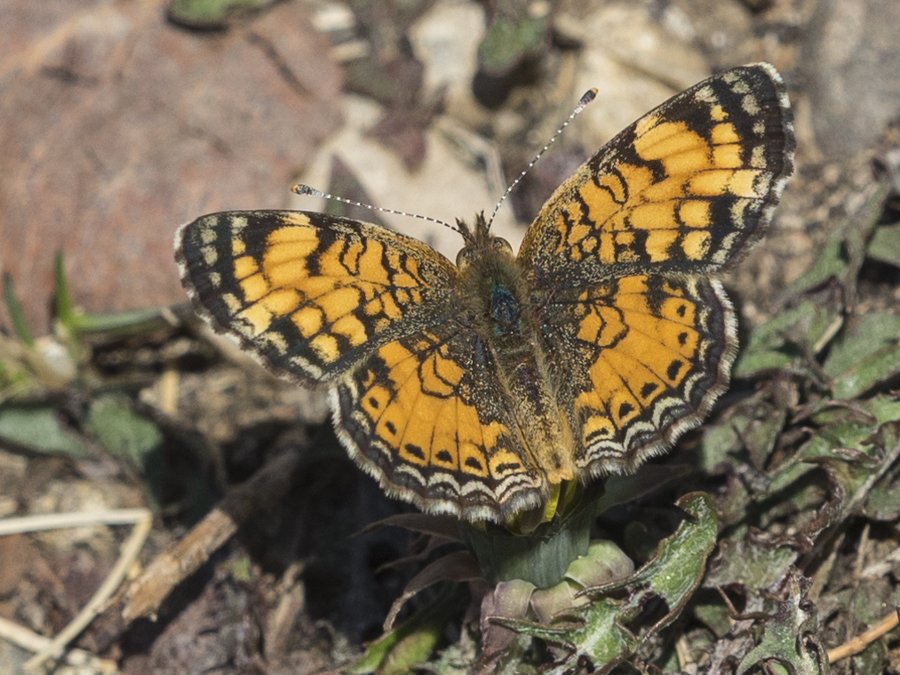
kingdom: Animalia
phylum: Arthropoda
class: Insecta
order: Lepidoptera
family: Nymphalidae
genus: Phyciodes
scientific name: Phyciodes tharos
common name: Pearl Crescent
